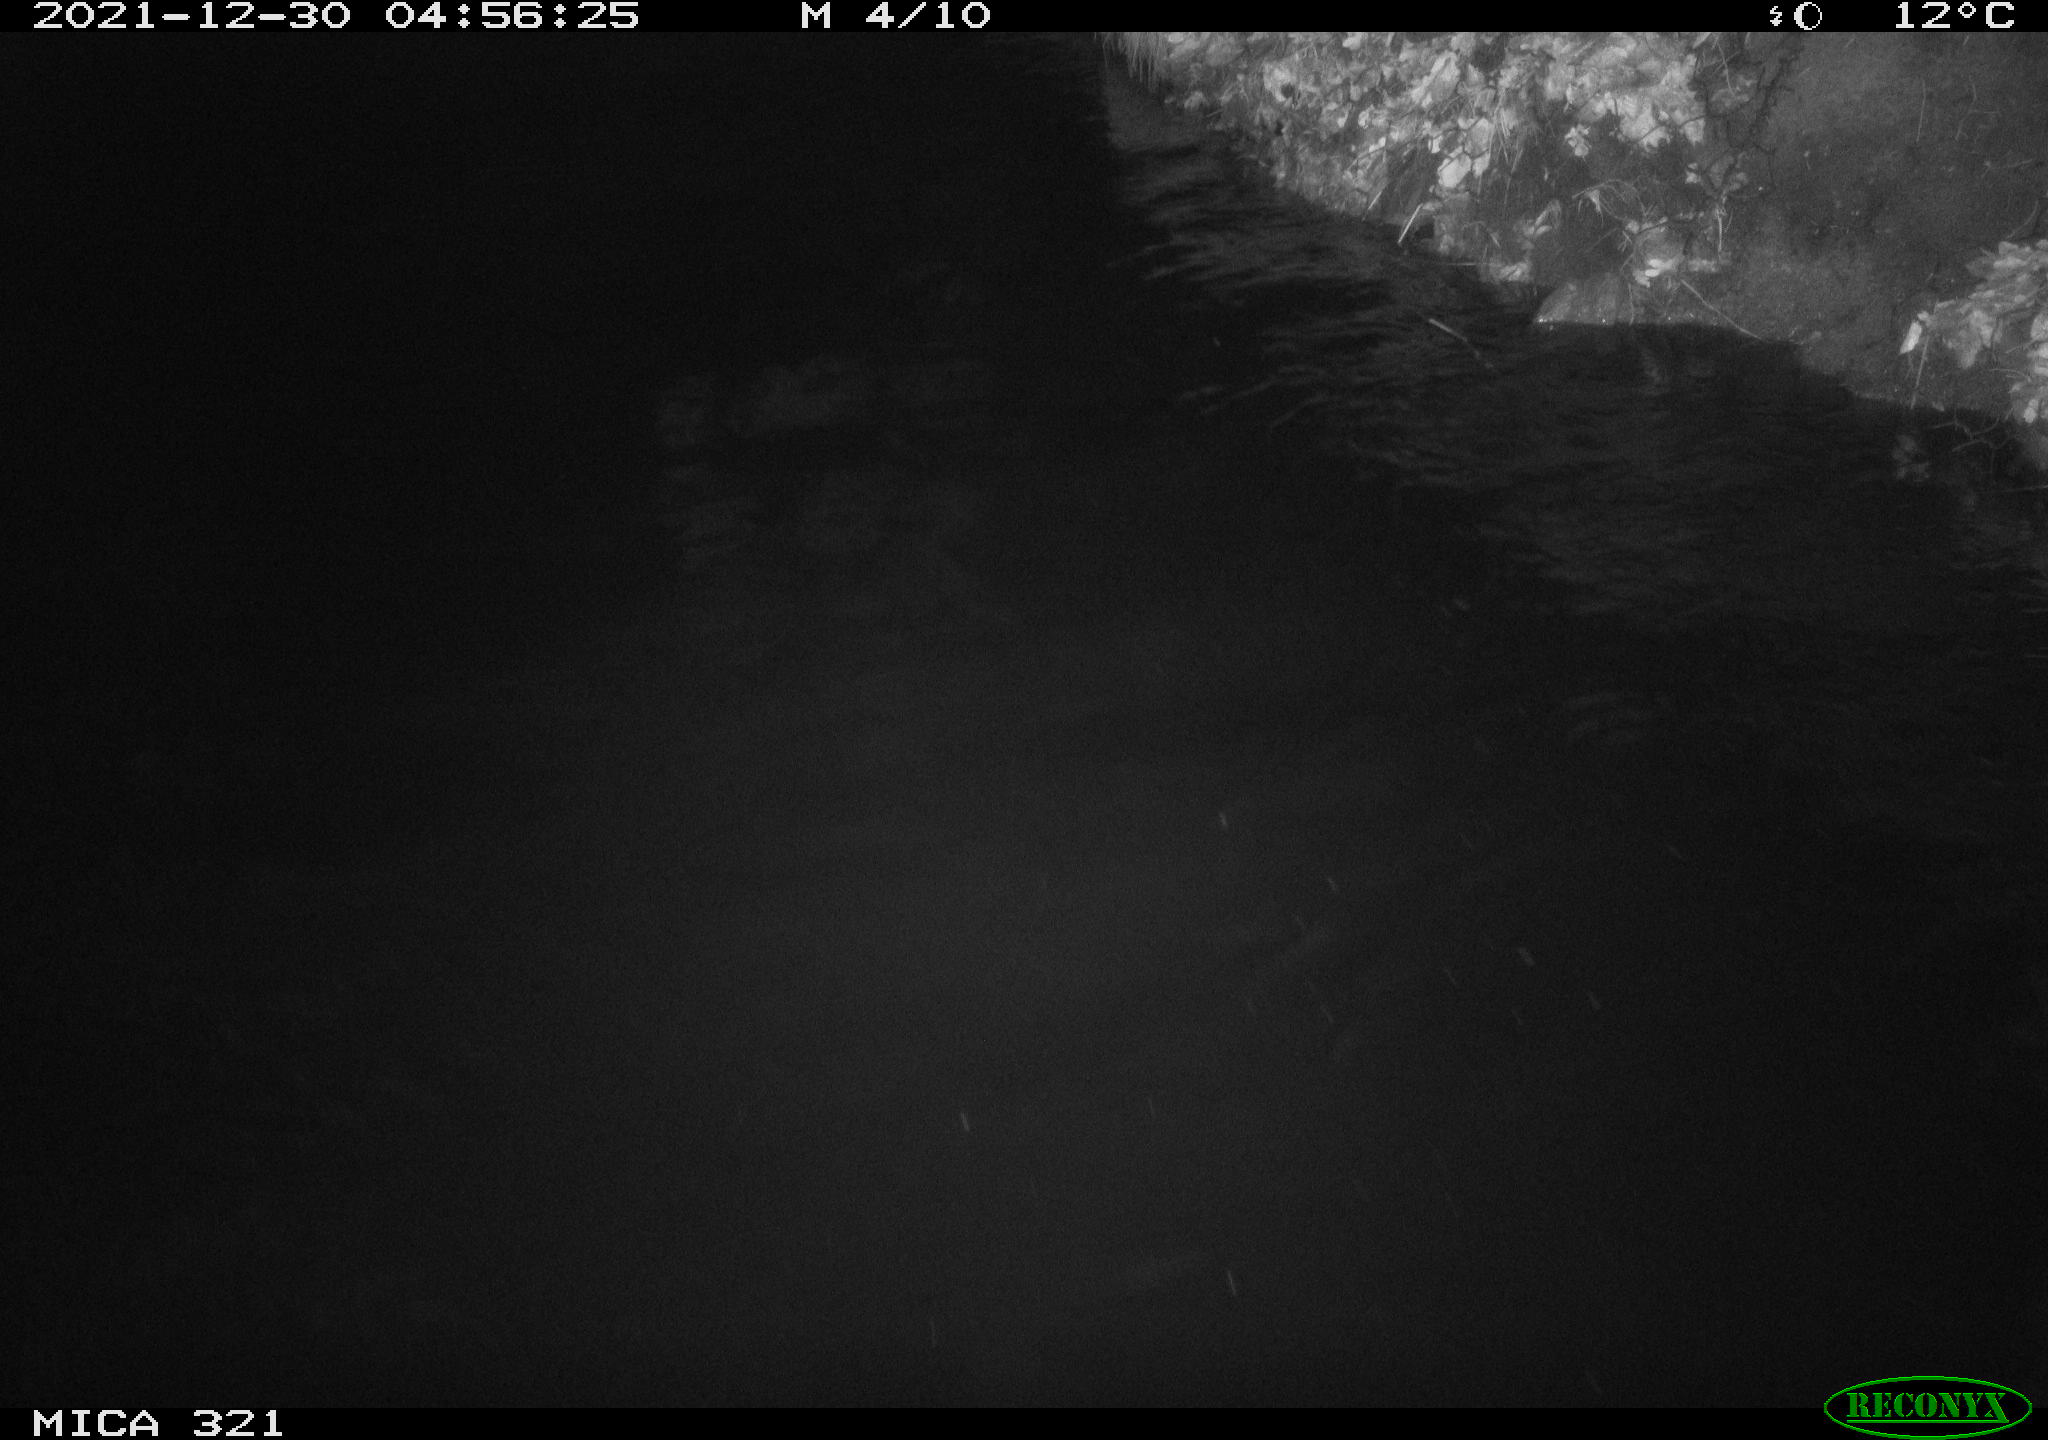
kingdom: Animalia
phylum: Chordata
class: Aves
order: Anseriformes
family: Anatidae
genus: Anas
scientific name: Anas platyrhynchos
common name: Mallard
